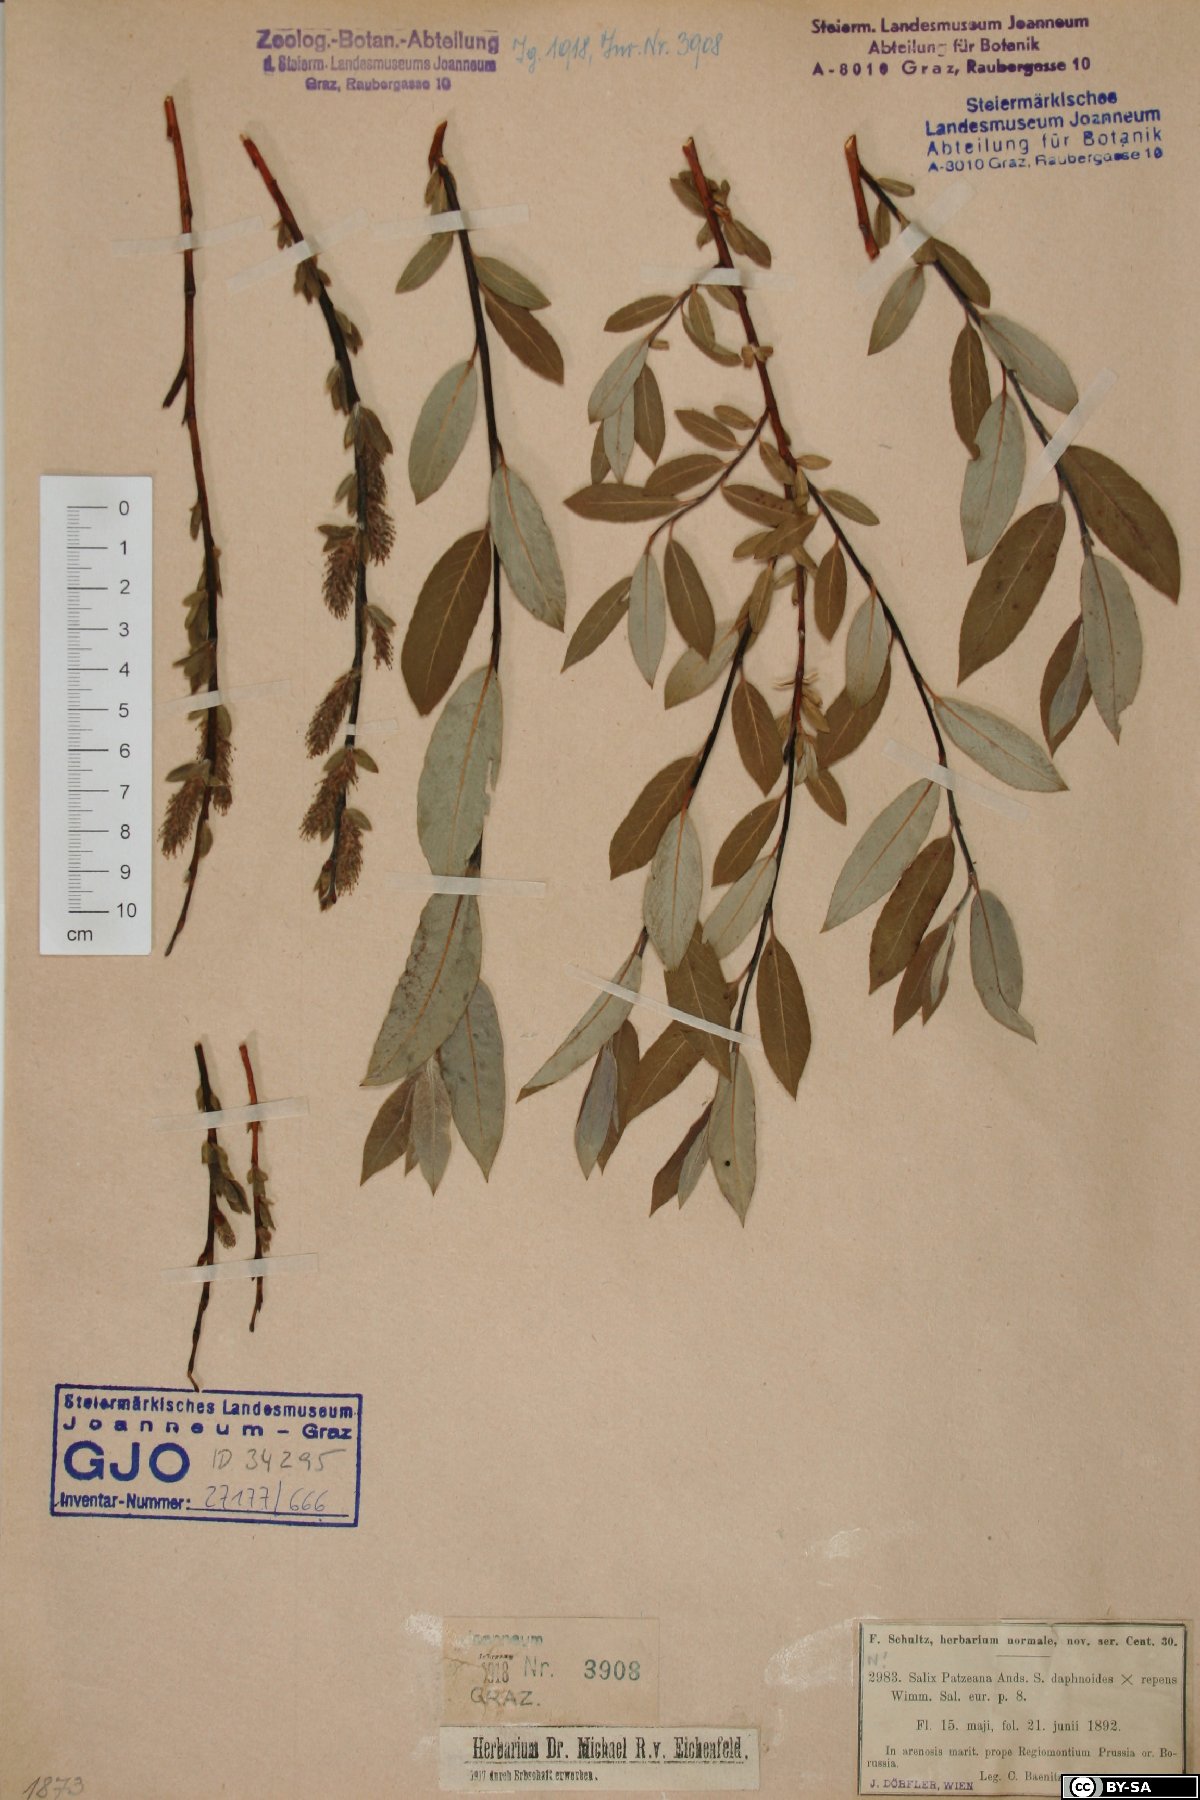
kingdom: Plantae
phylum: Tracheophyta
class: Magnoliopsida
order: Malpighiales
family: Salicaceae
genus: Salix
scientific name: Salix repens
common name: Creeping willow
